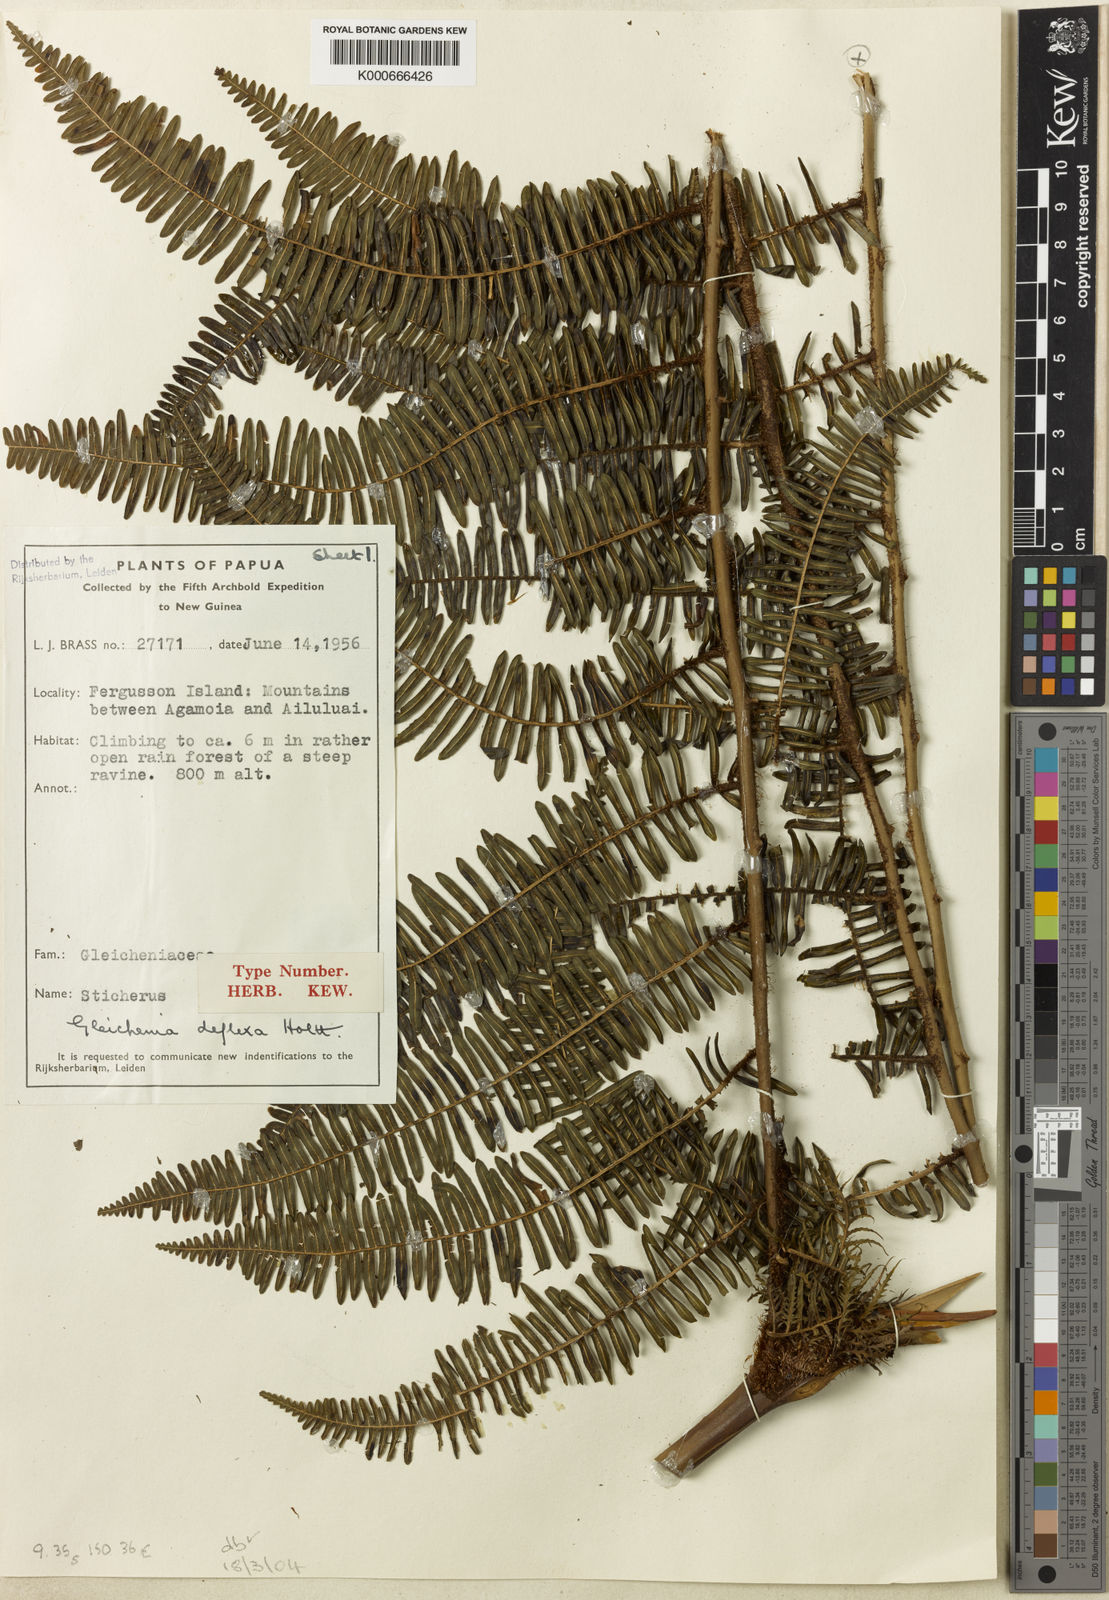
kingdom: Plantae
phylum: Tracheophyta
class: Polypodiopsida
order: Gleicheniales
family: Gleicheniaceae
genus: Diplopterygium
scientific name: Diplopterygium deflexum
